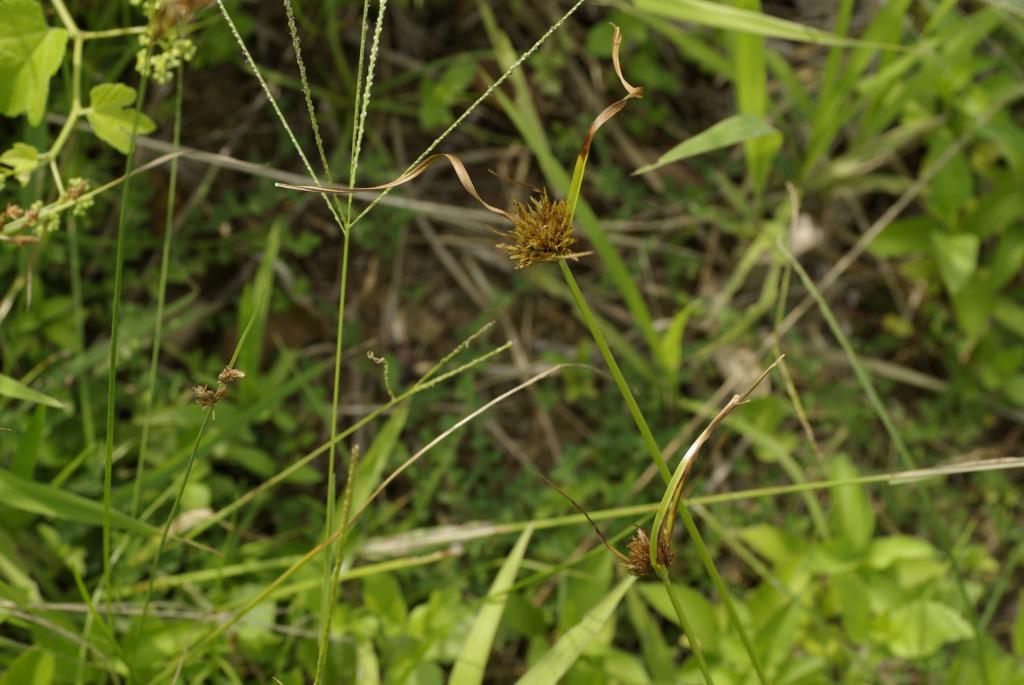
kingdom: Plantae
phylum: Tracheophyta
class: Liliopsida
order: Poales
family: Cyperaceae
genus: Cyperus
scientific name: Cyperus polystachyos
